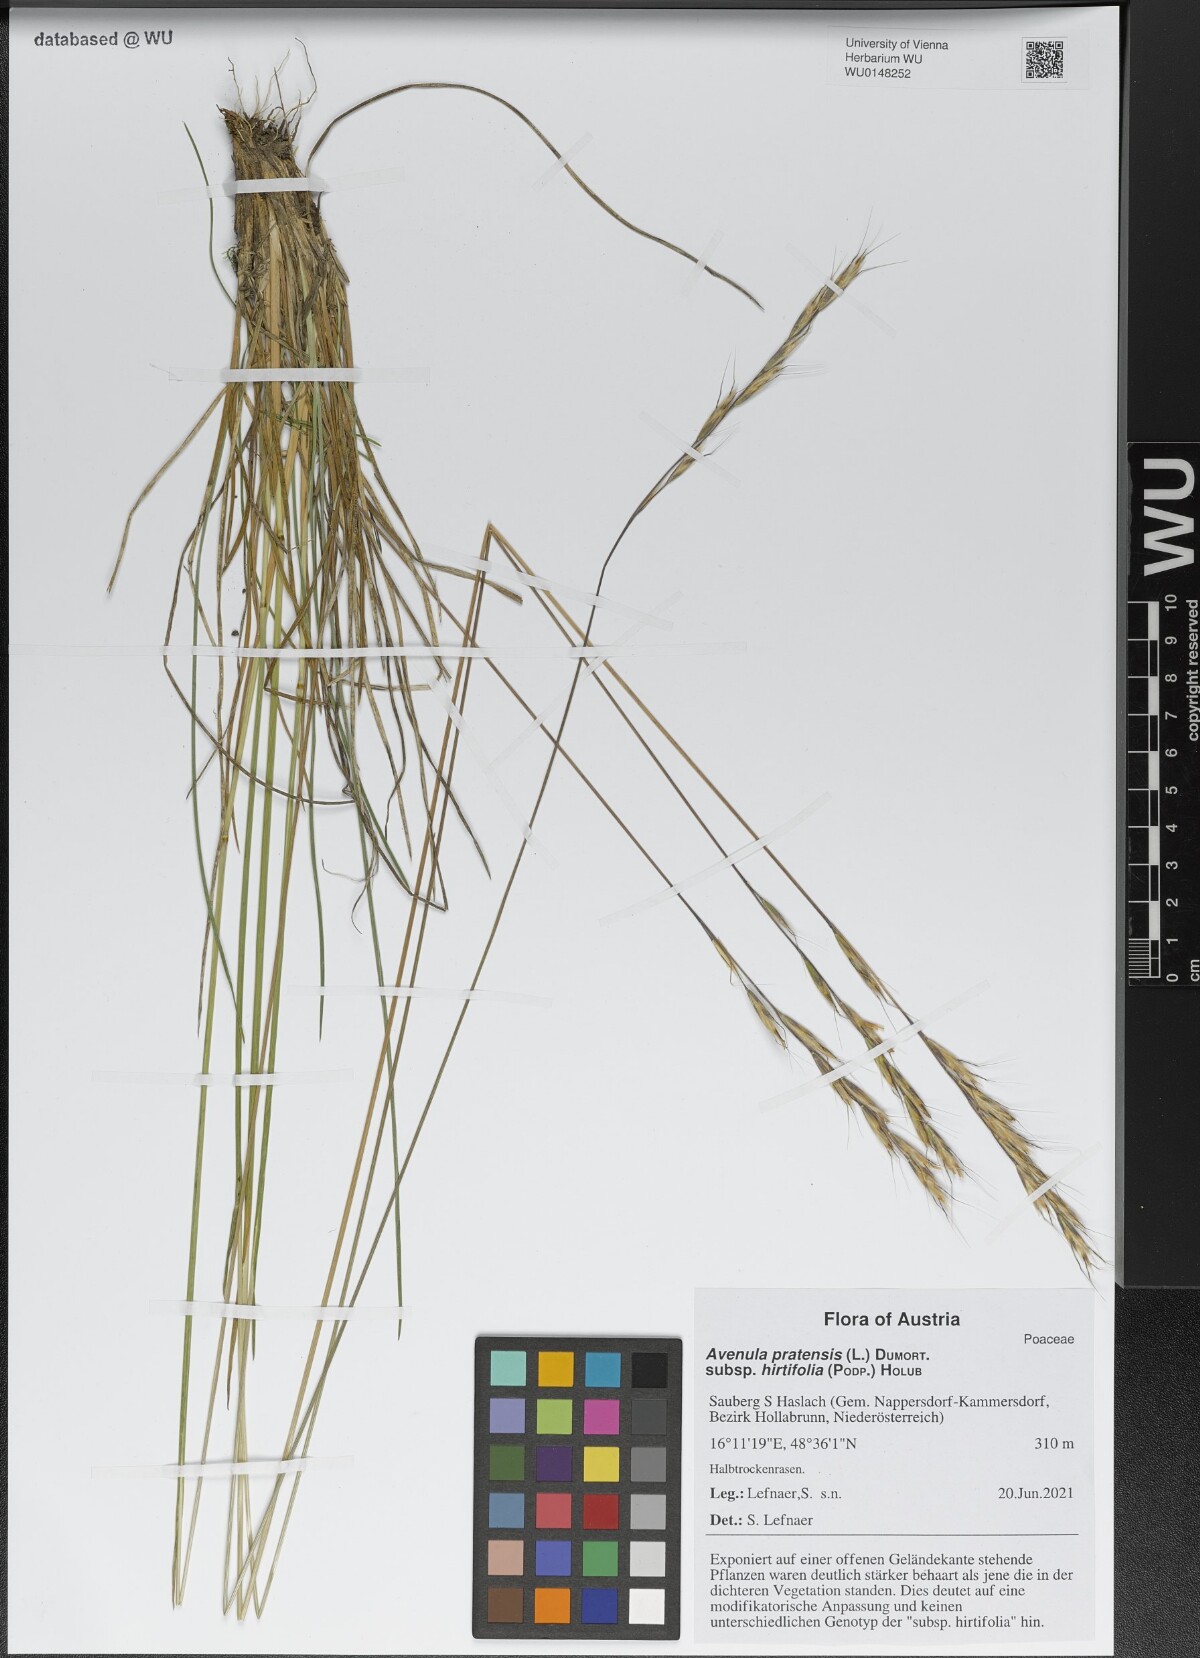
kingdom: Plantae
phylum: Tracheophyta
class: Liliopsida
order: Poales
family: Poaceae
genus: Helictochloa
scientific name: Helictochloa pratensis
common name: Meadow oat grass
